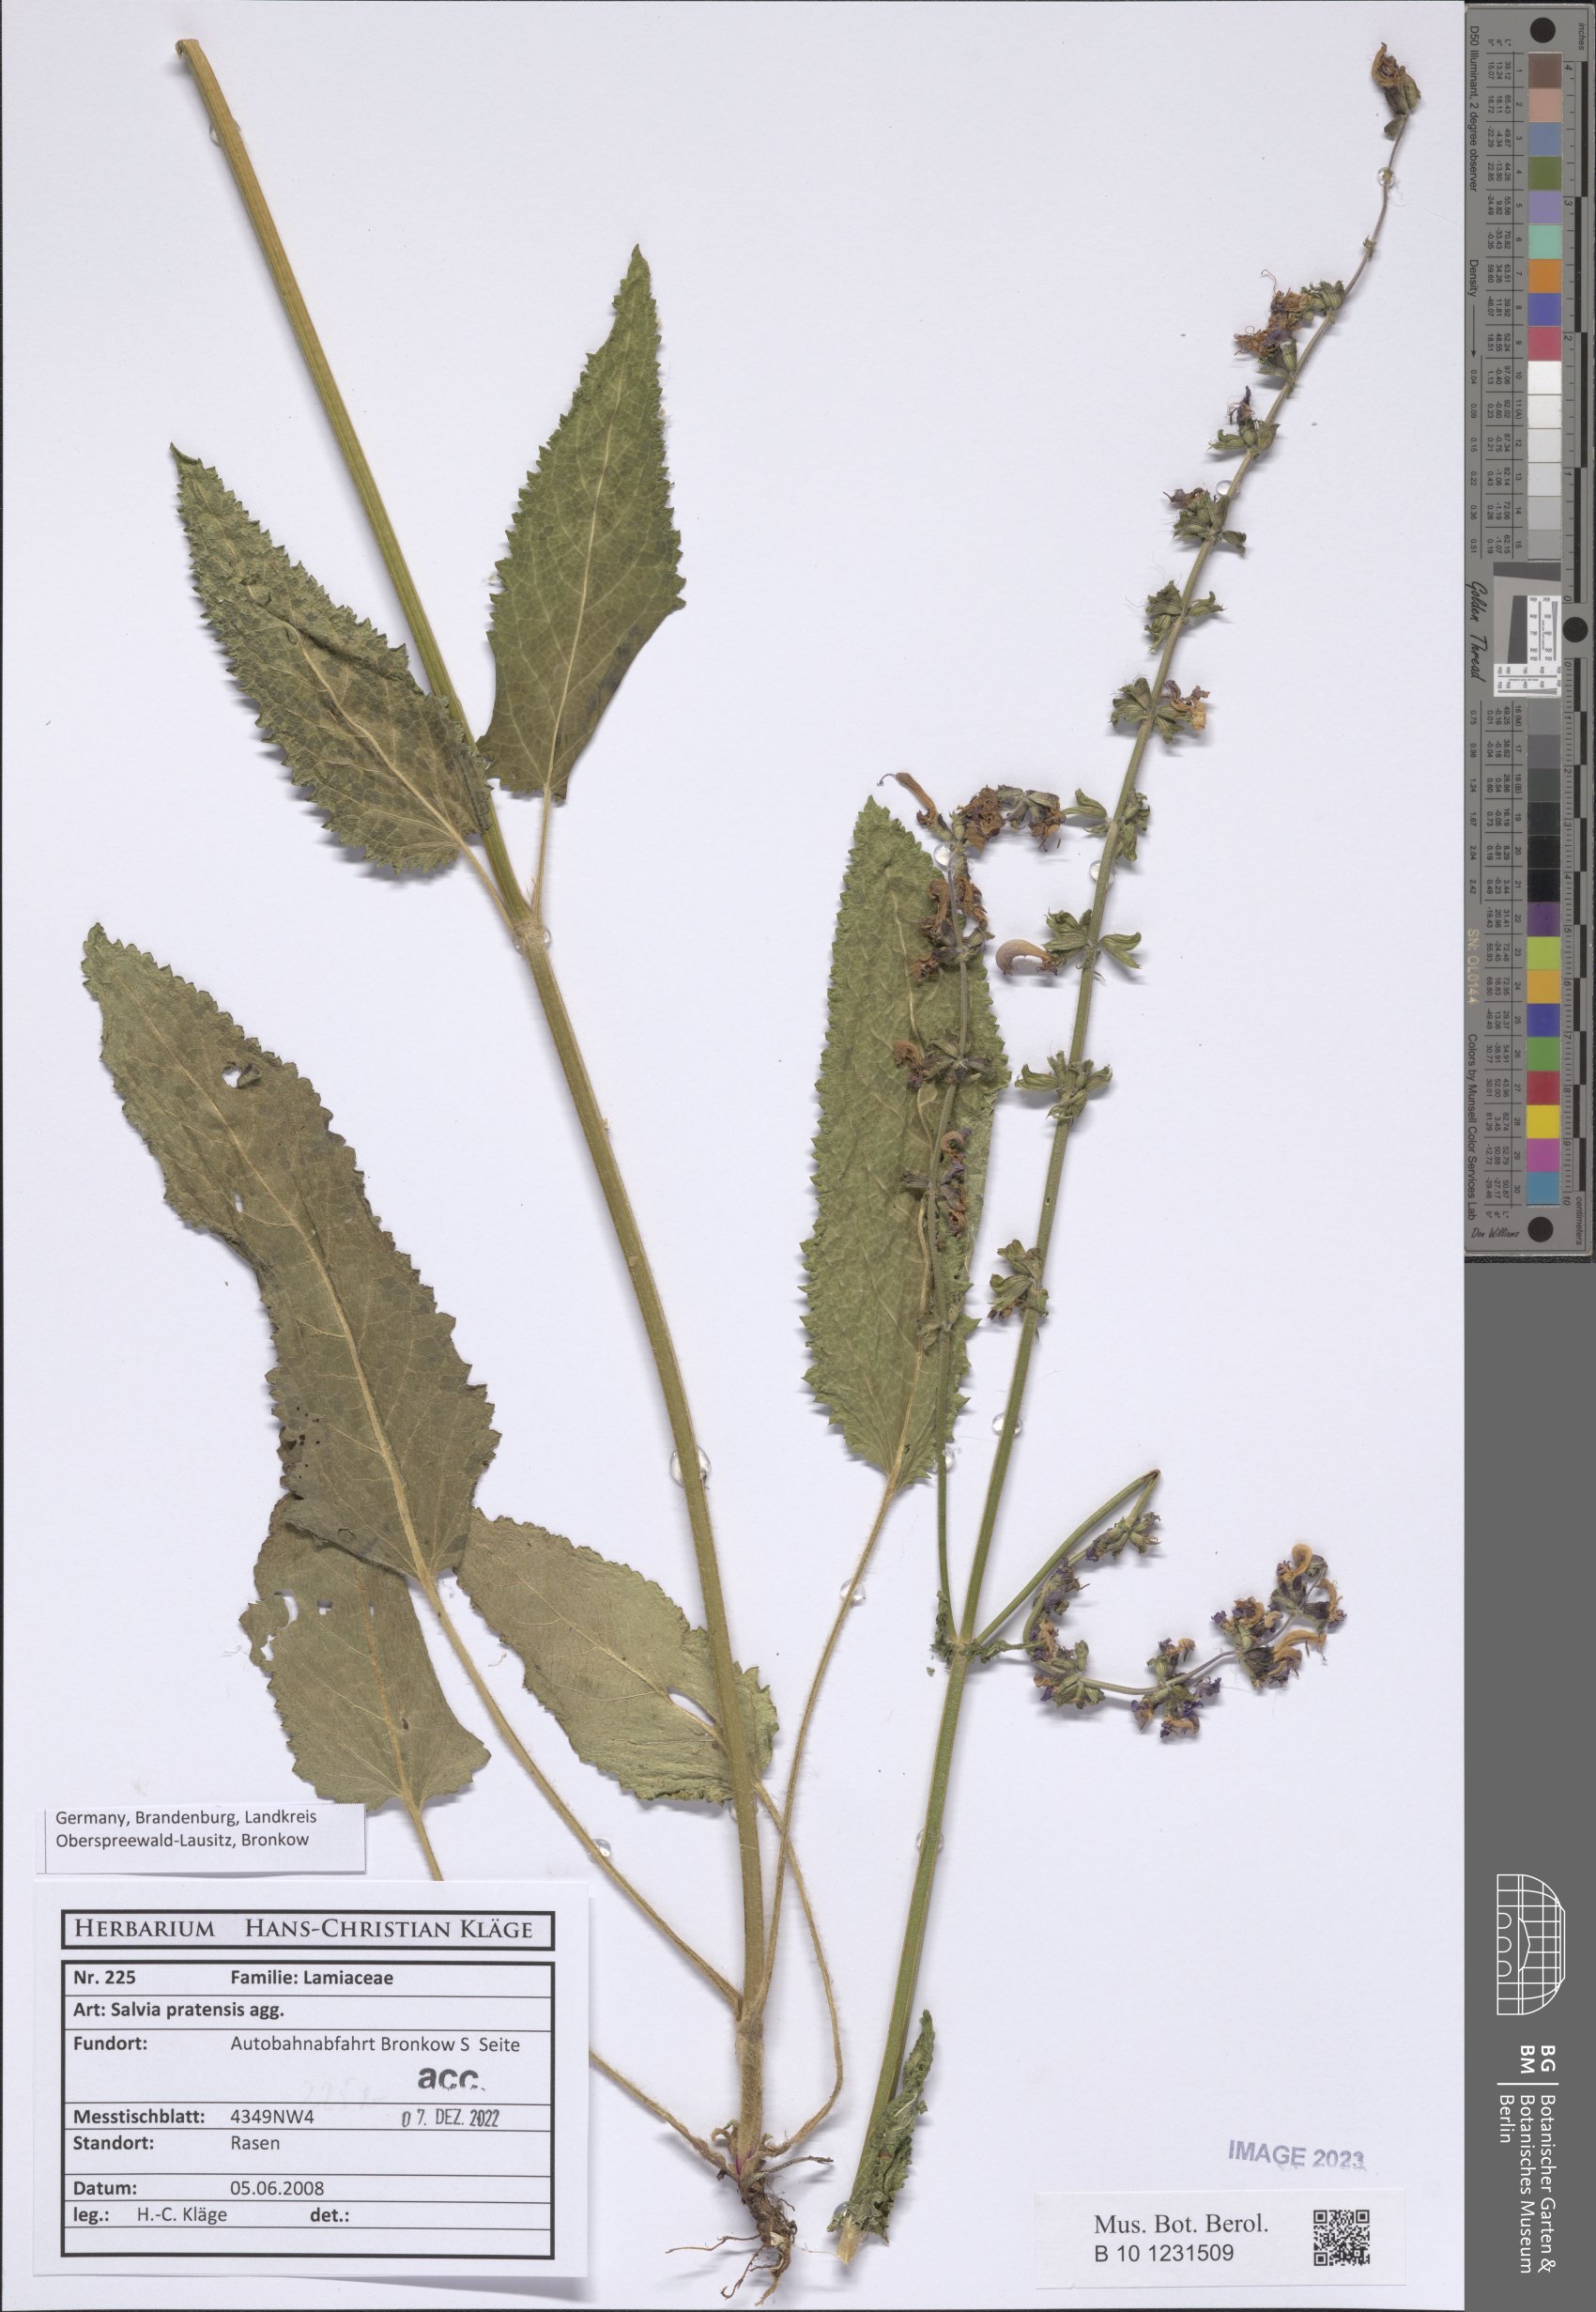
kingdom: Plantae
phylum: Tracheophyta
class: Magnoliopsida
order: Lamiales
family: Lamiaceae
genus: Salvia
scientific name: Salvia pratensis
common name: Meadow sage
